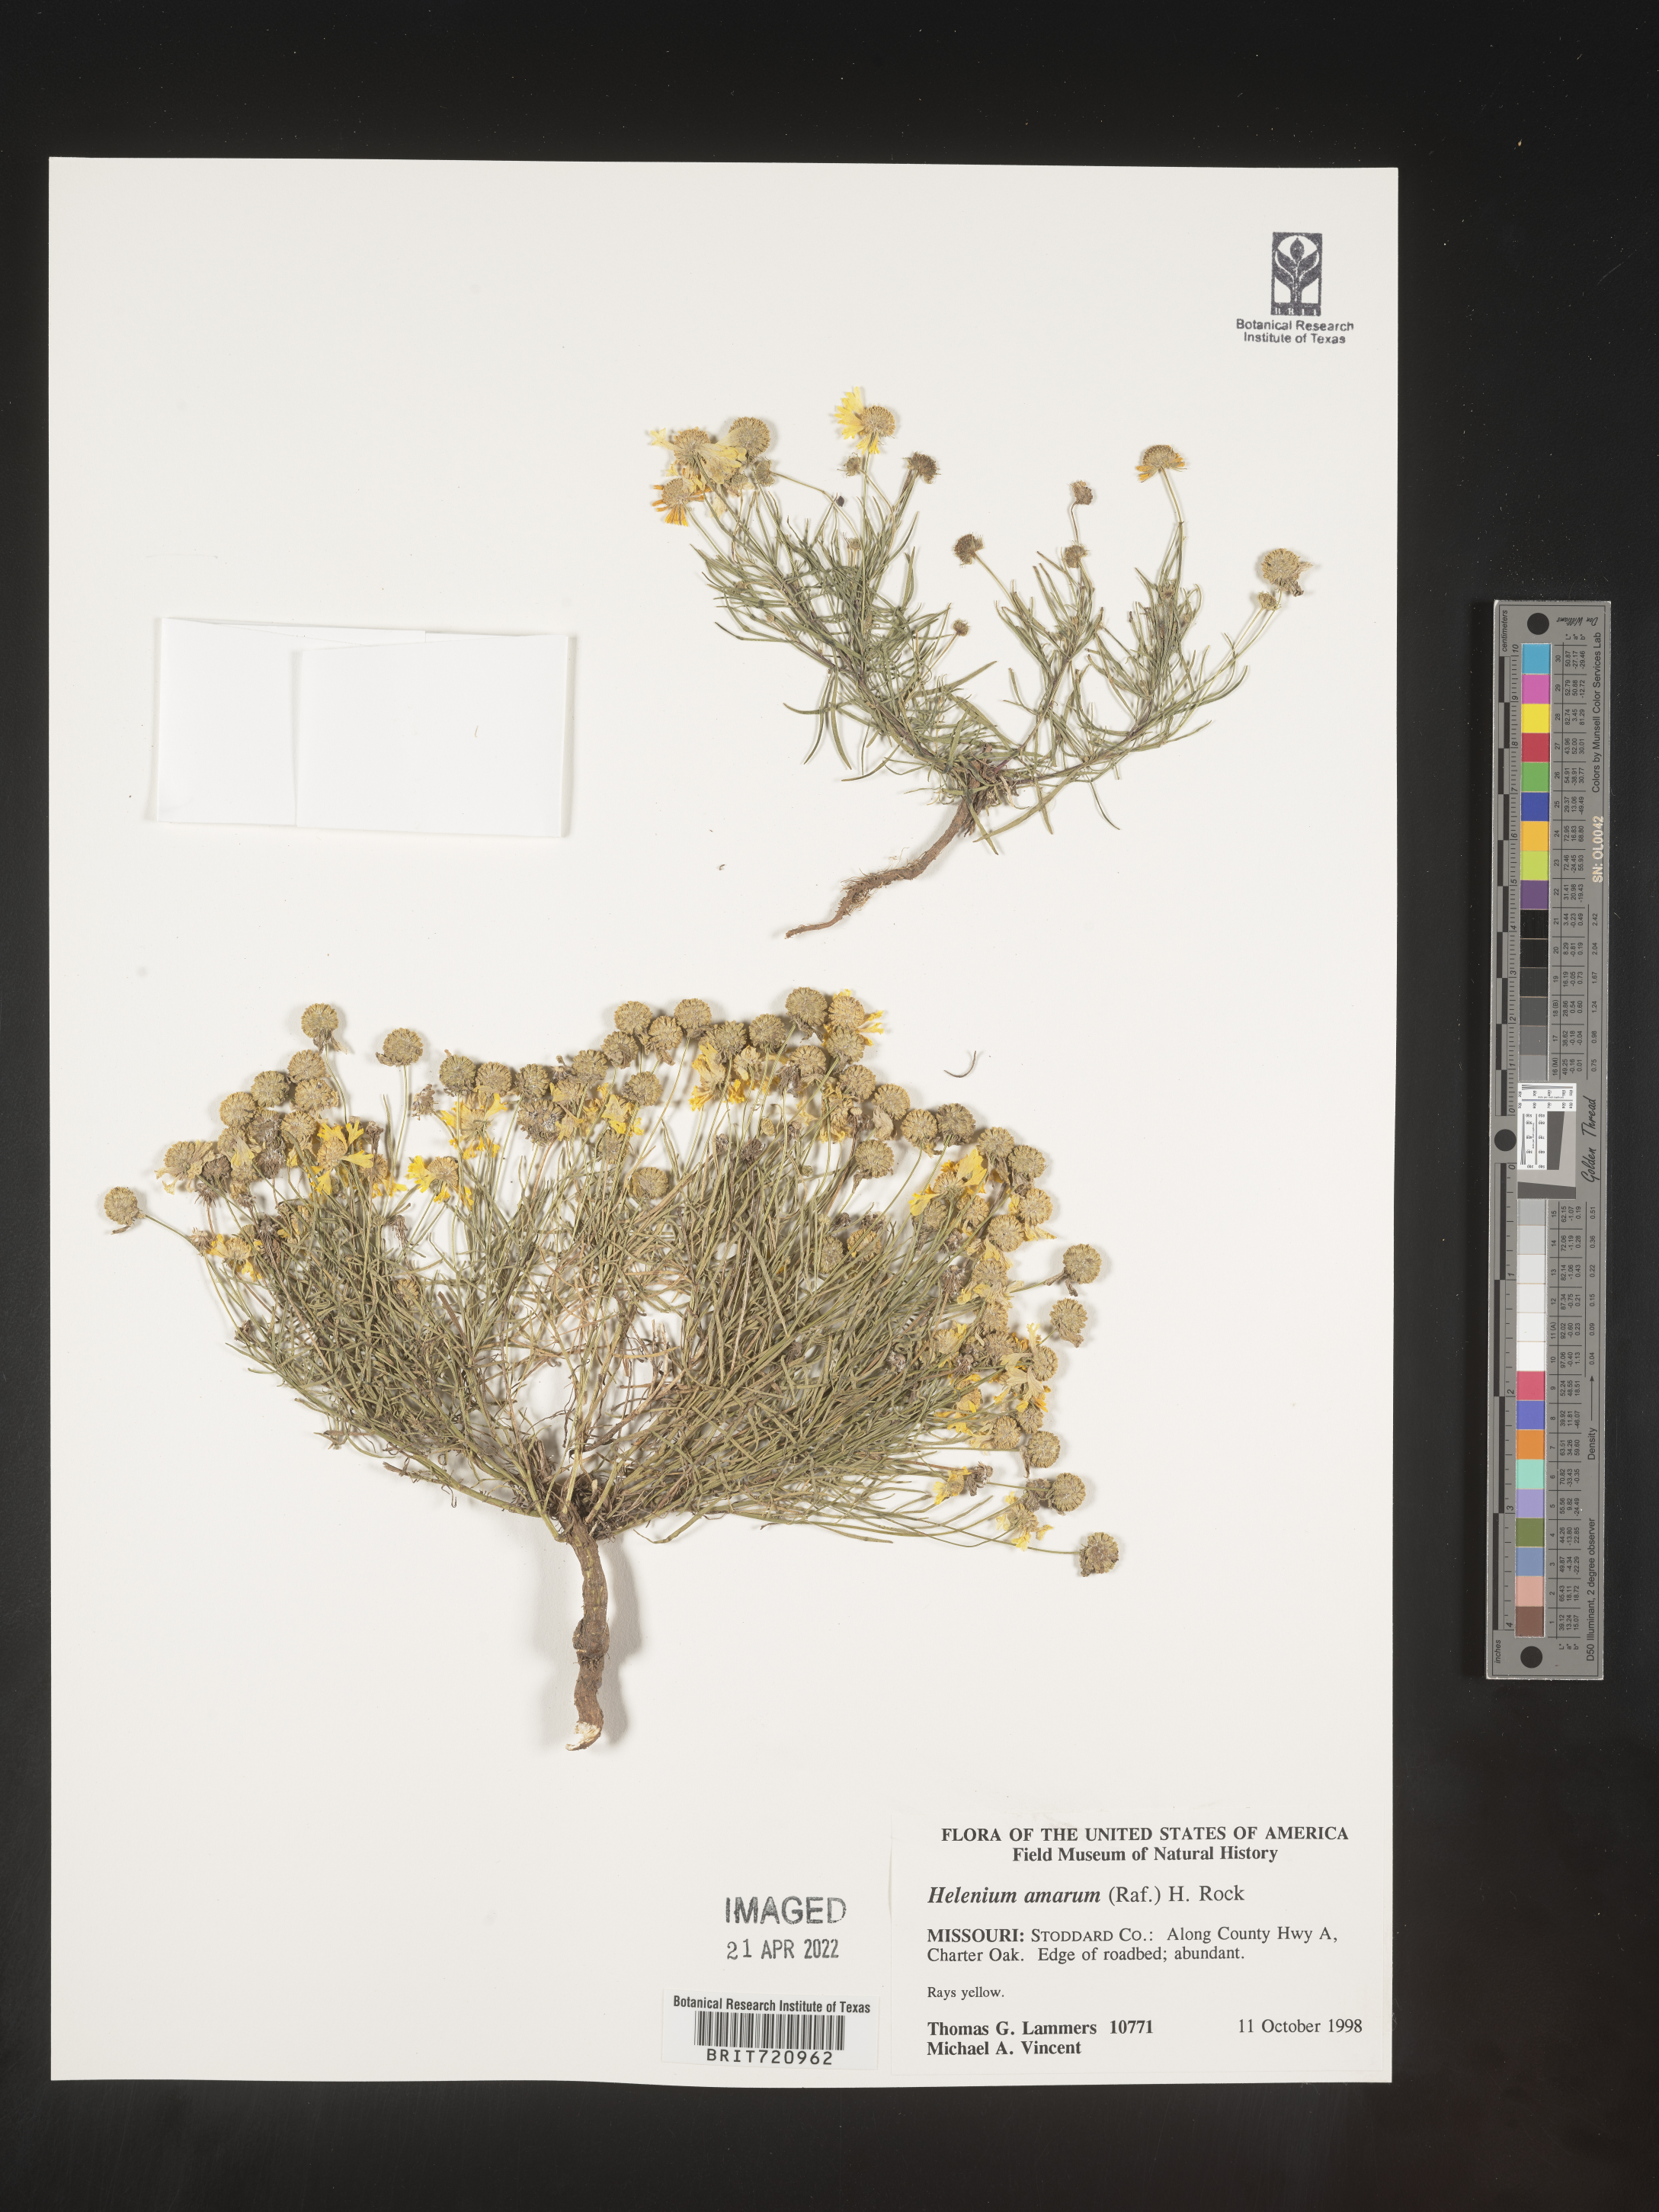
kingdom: Plantae
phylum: Tracheophyta
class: Magnoliopsida
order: Asterales
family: Asteraceae
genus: Helenium
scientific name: Helenium amarum
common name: Bitter sneezeweed
